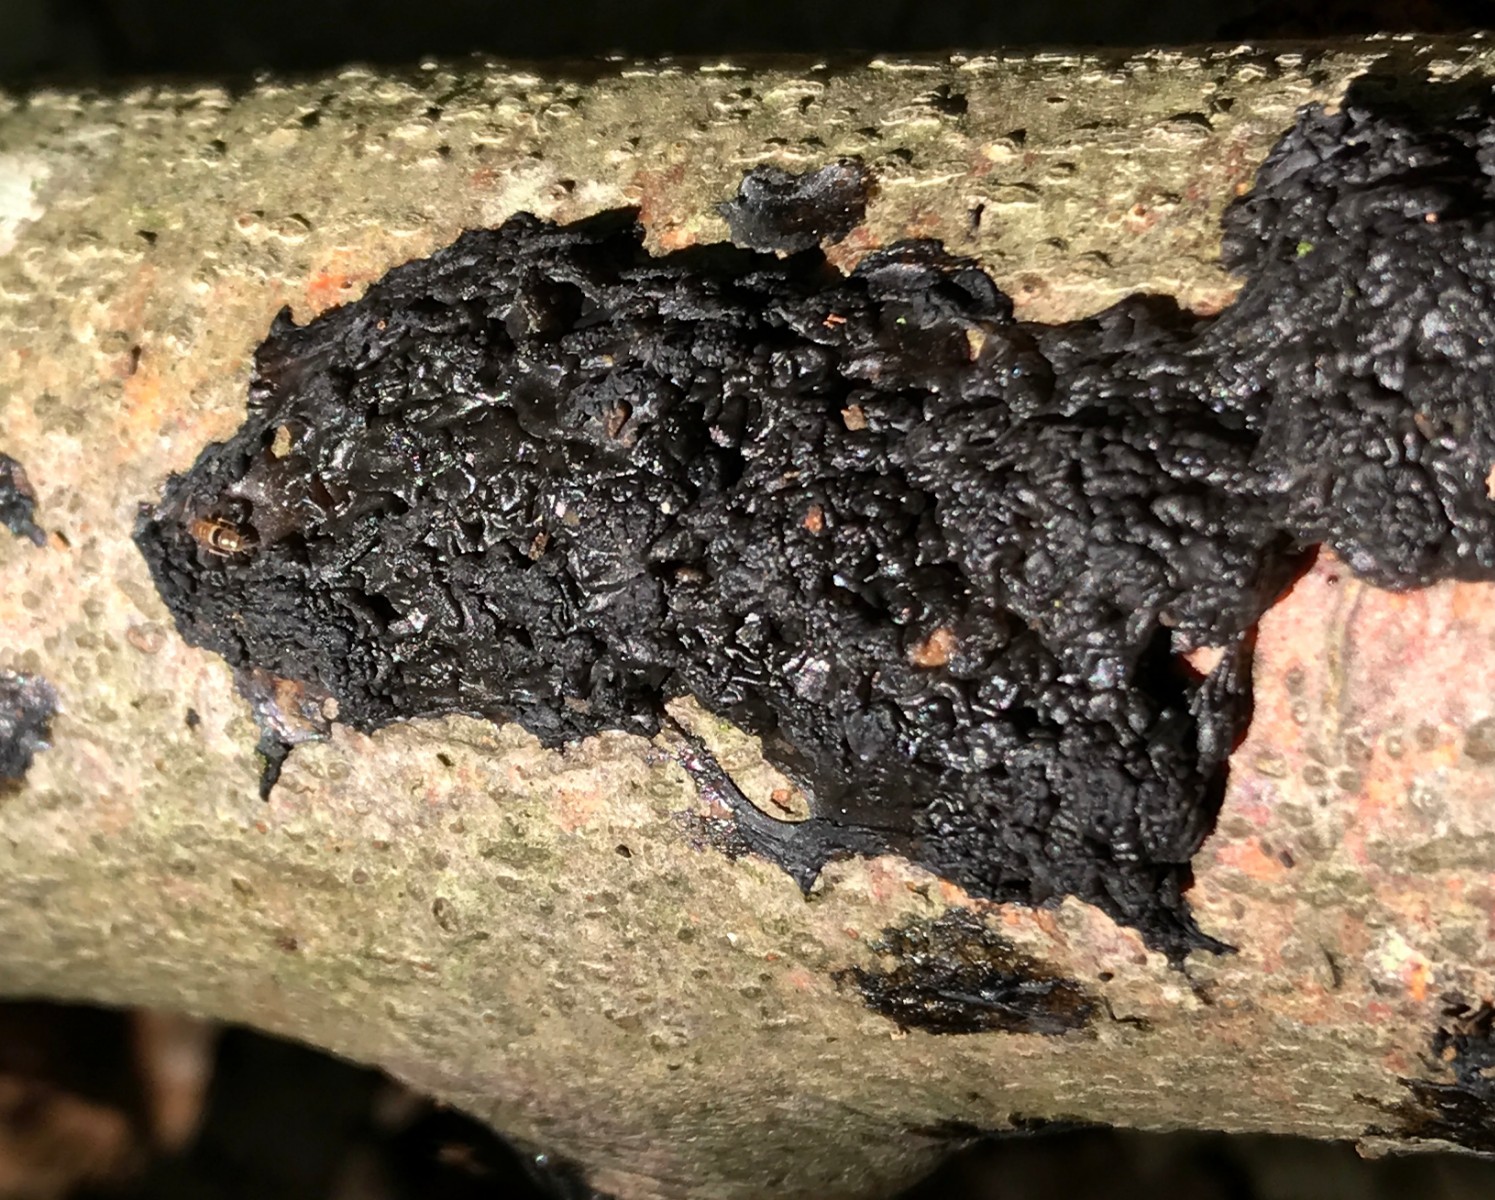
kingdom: Fungi
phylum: Basidiomycota
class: Agaricomycetes
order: Auriculariales
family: Auriculariaceae
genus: Exidia
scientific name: Exidia nigricans
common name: almindelig bævretop
